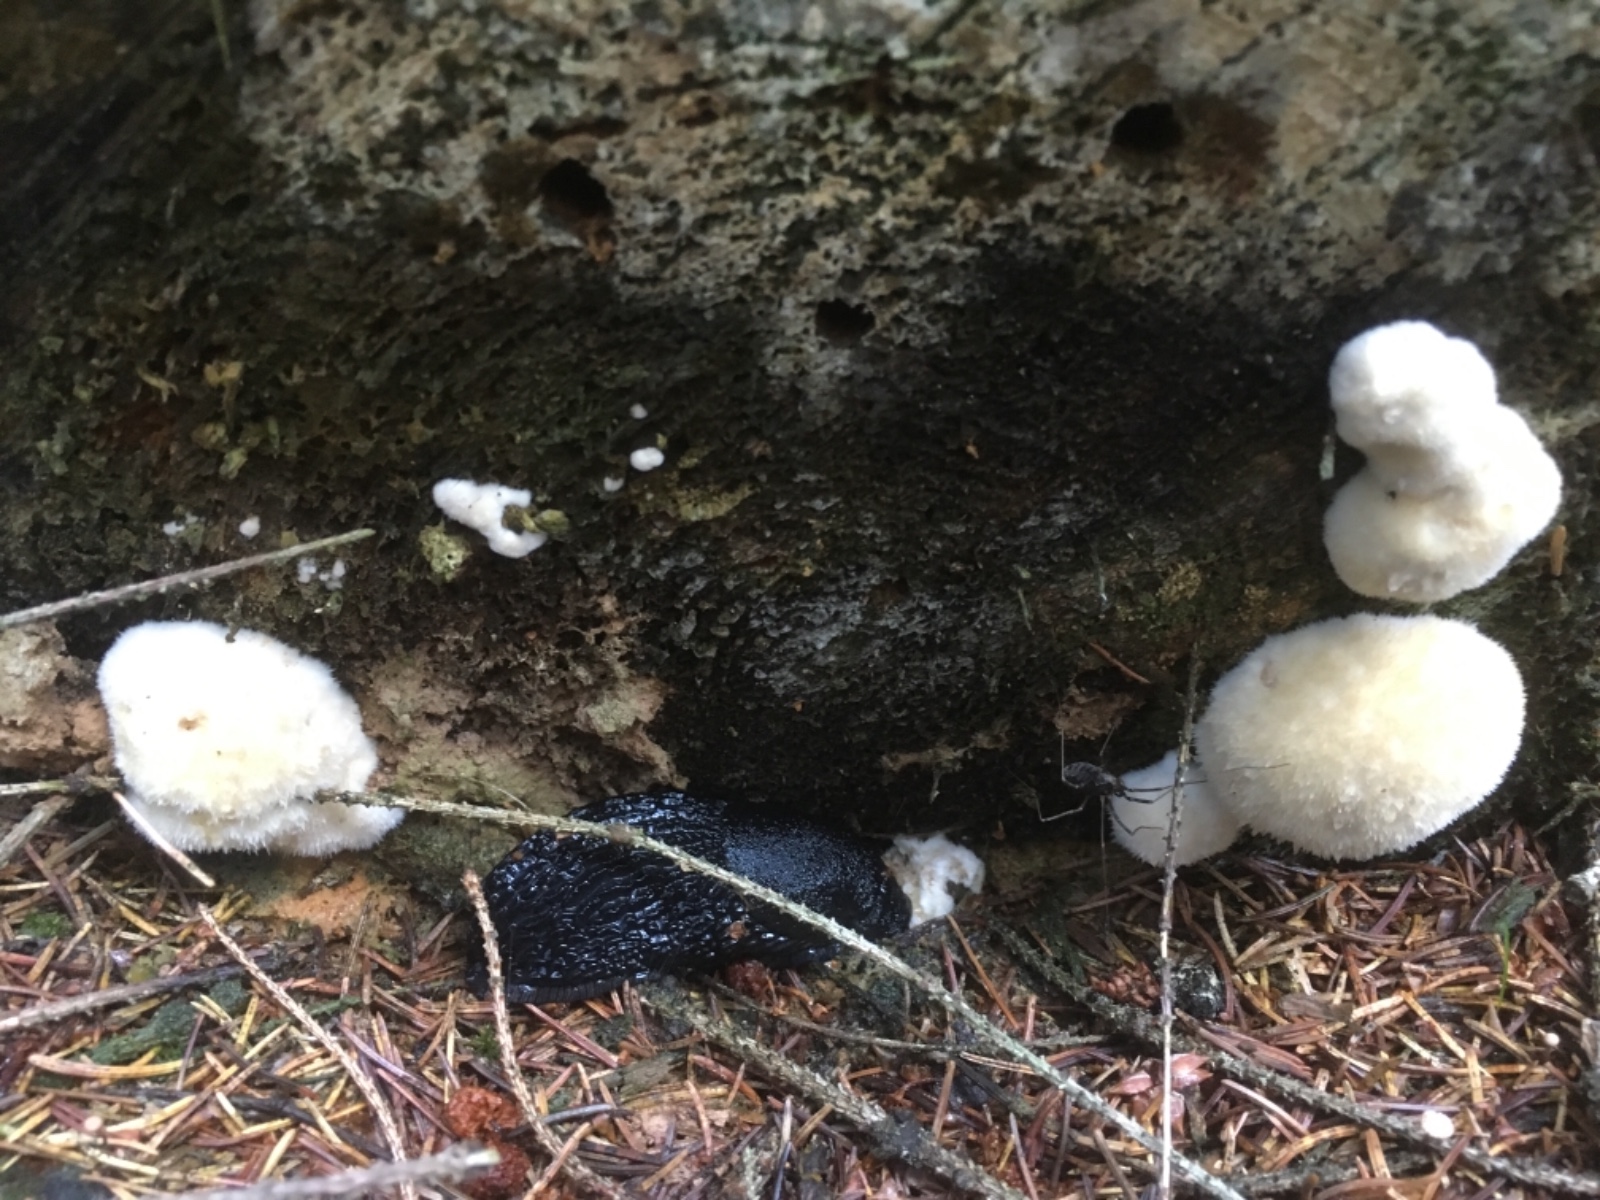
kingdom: Fungi
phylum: Basidiomycota
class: Agaricomycetes
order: Polyporales
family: Dacryobolaceae
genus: Postia
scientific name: Postia ptychogaster
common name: støvende kødporesvamp
